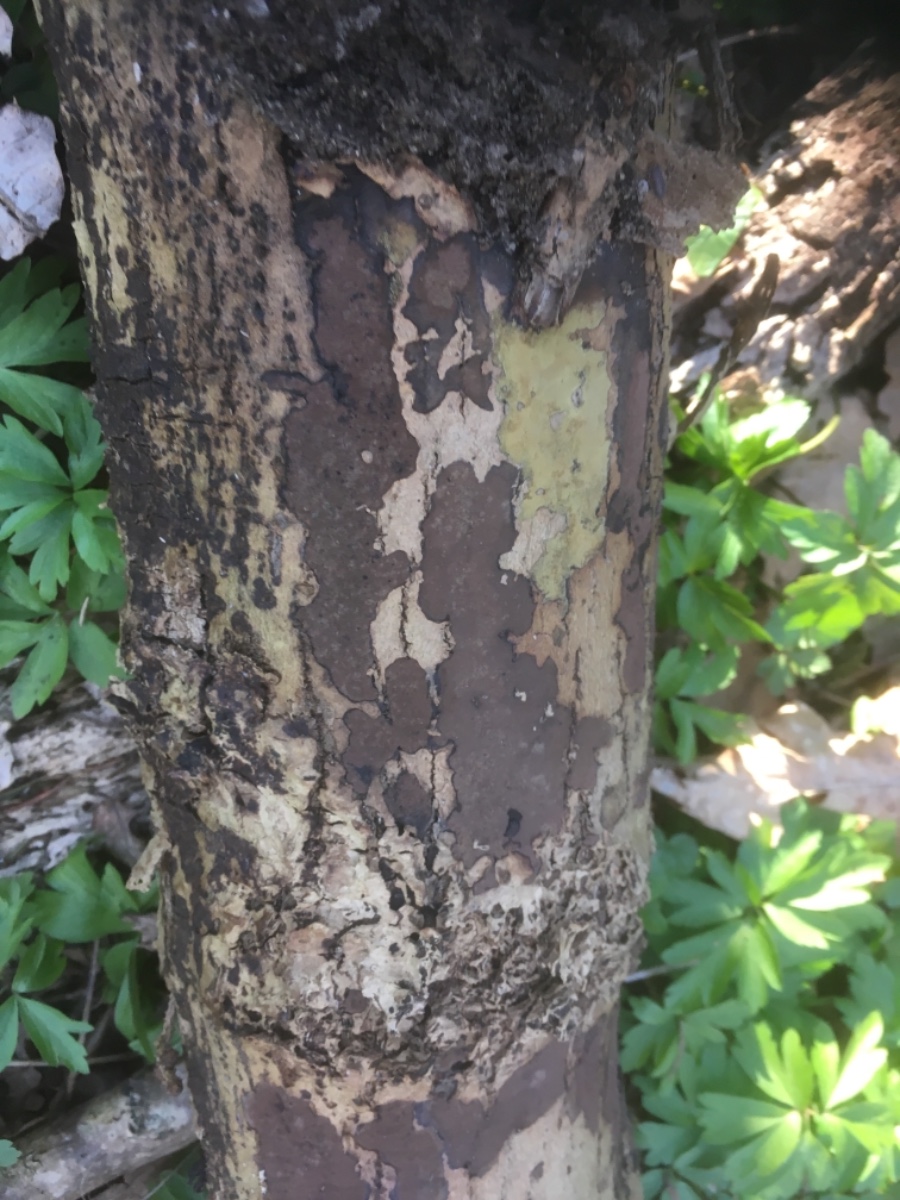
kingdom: Fungi
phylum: Ascomycota
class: Sordariomycetes
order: Xylariales
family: Hypoxylaceae
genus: Hypoxylon
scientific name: Hypoxylon petriniae
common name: nedsænket kulbær
